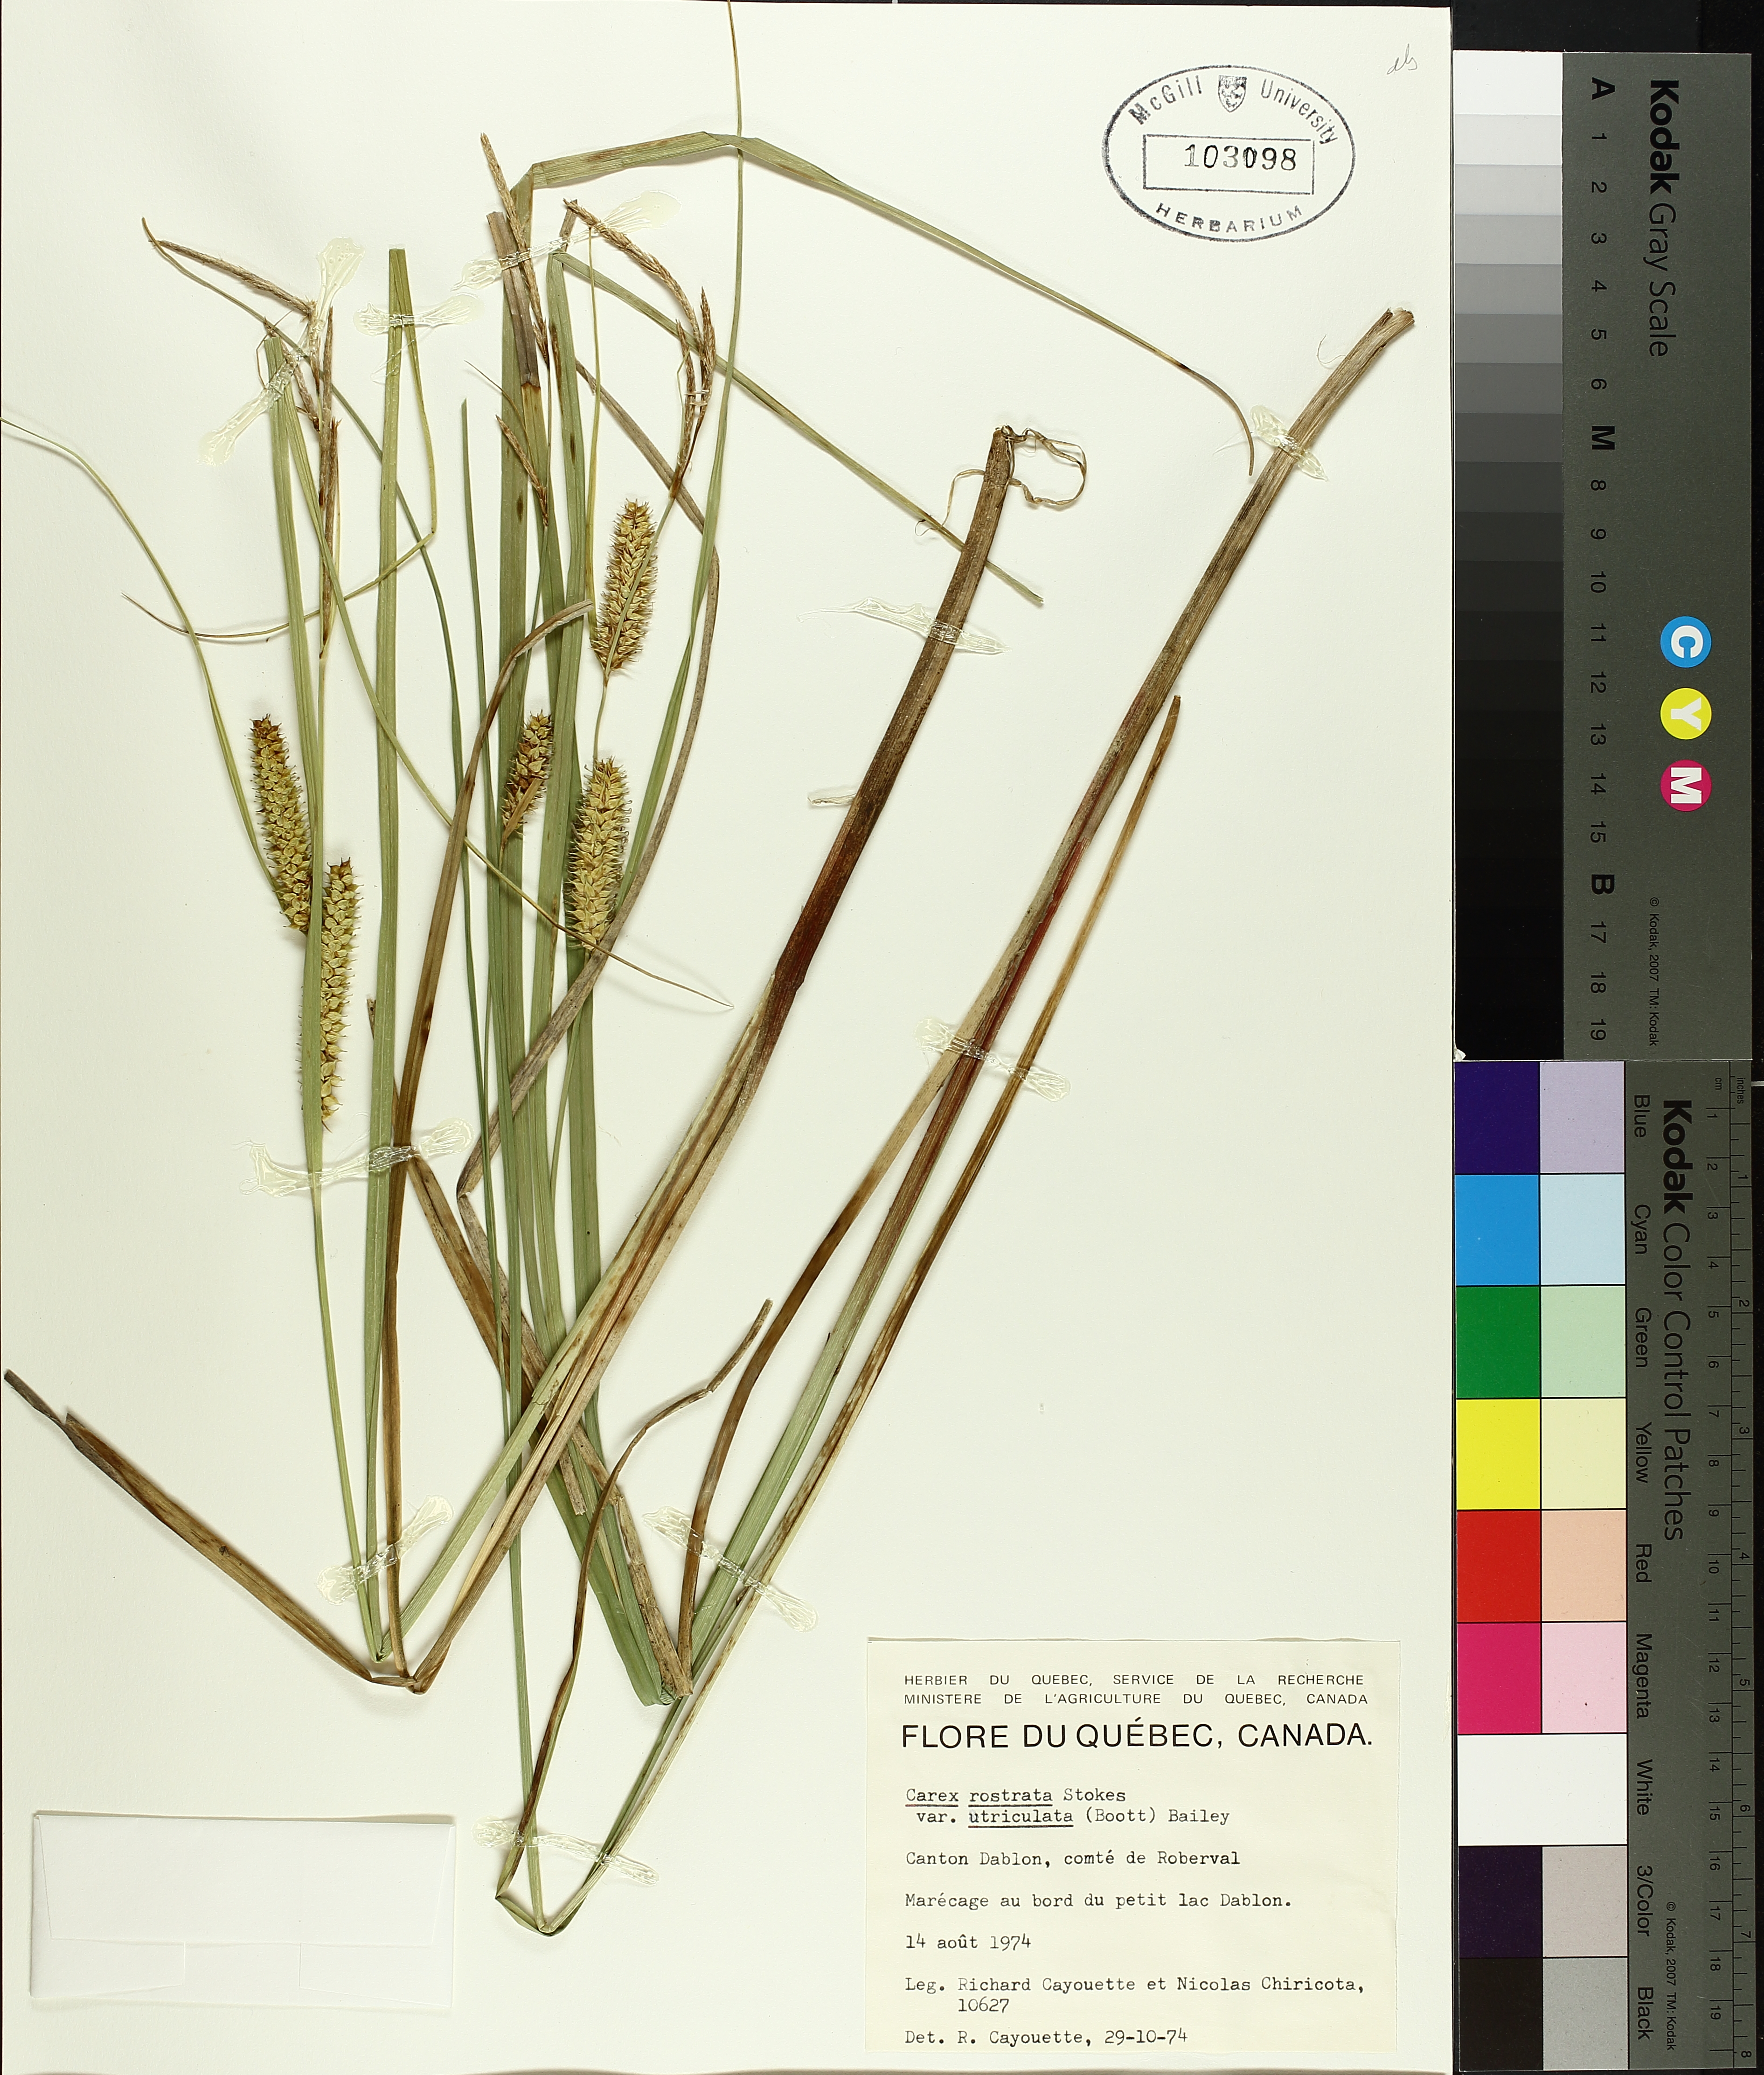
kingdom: Plantae
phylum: Tracheophyta
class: Liliopsida
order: Poales
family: Cyperaceae
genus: Carex
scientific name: Carex utriculata
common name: Beaked sedge
